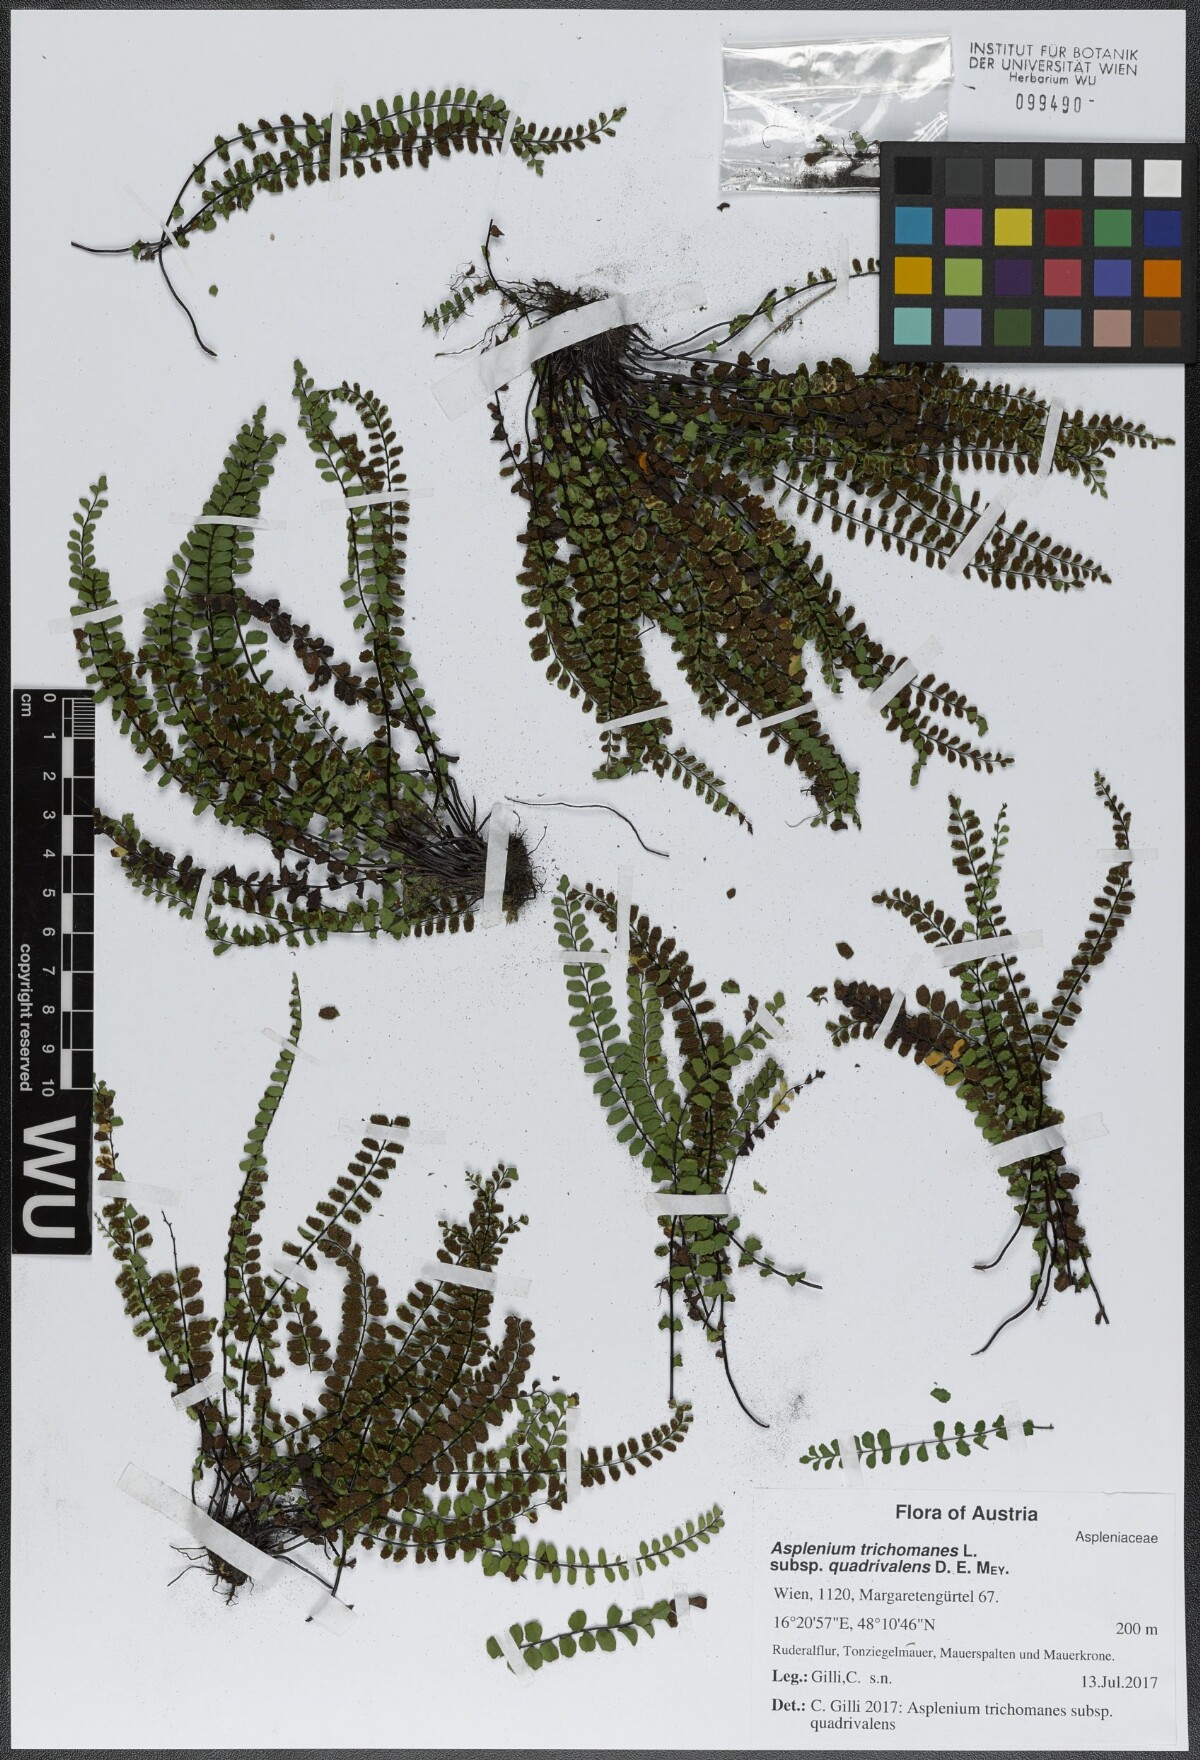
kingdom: Plantae
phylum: Tracheophyta
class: Polypodiopsida
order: Polypodiales
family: Aspleniaceae
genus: Asplenium
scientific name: Asplenium quadrivalens
